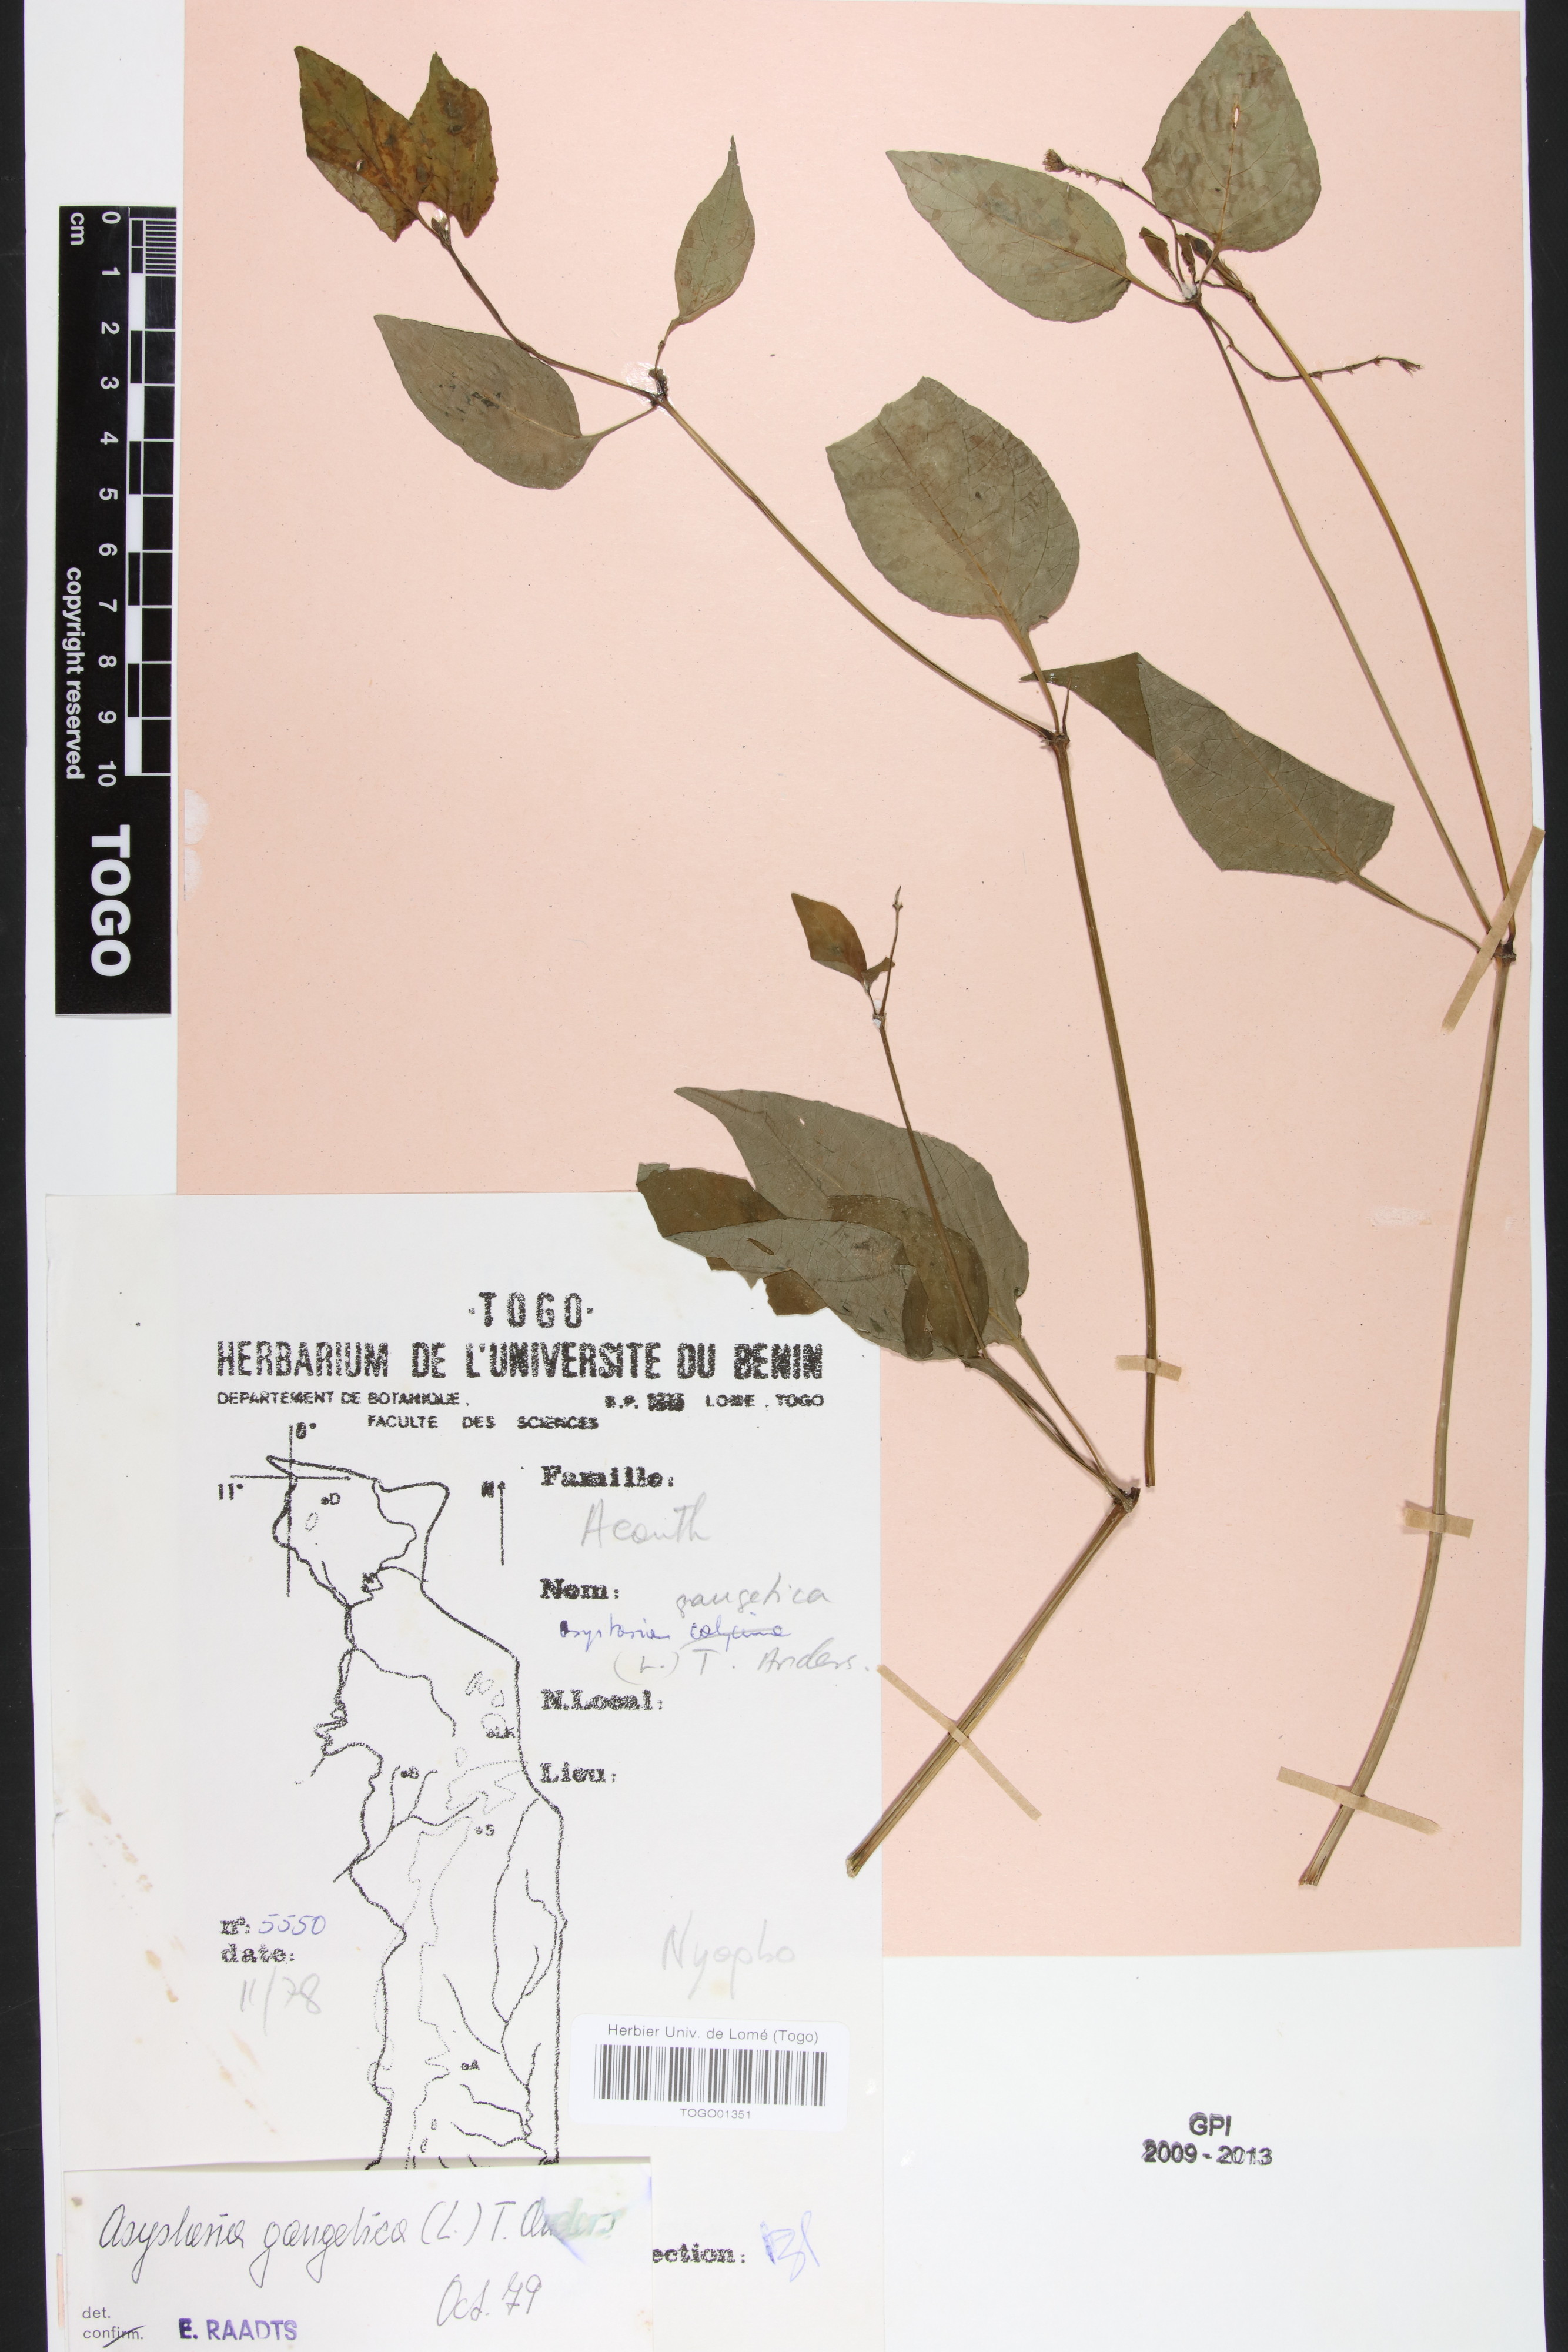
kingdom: Plantae
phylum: Tracheophyta
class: Magnoliopsida
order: Lamiales
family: Acanthaceae
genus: Asystasia
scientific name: Asystasia gangetica
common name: Chinese violet
